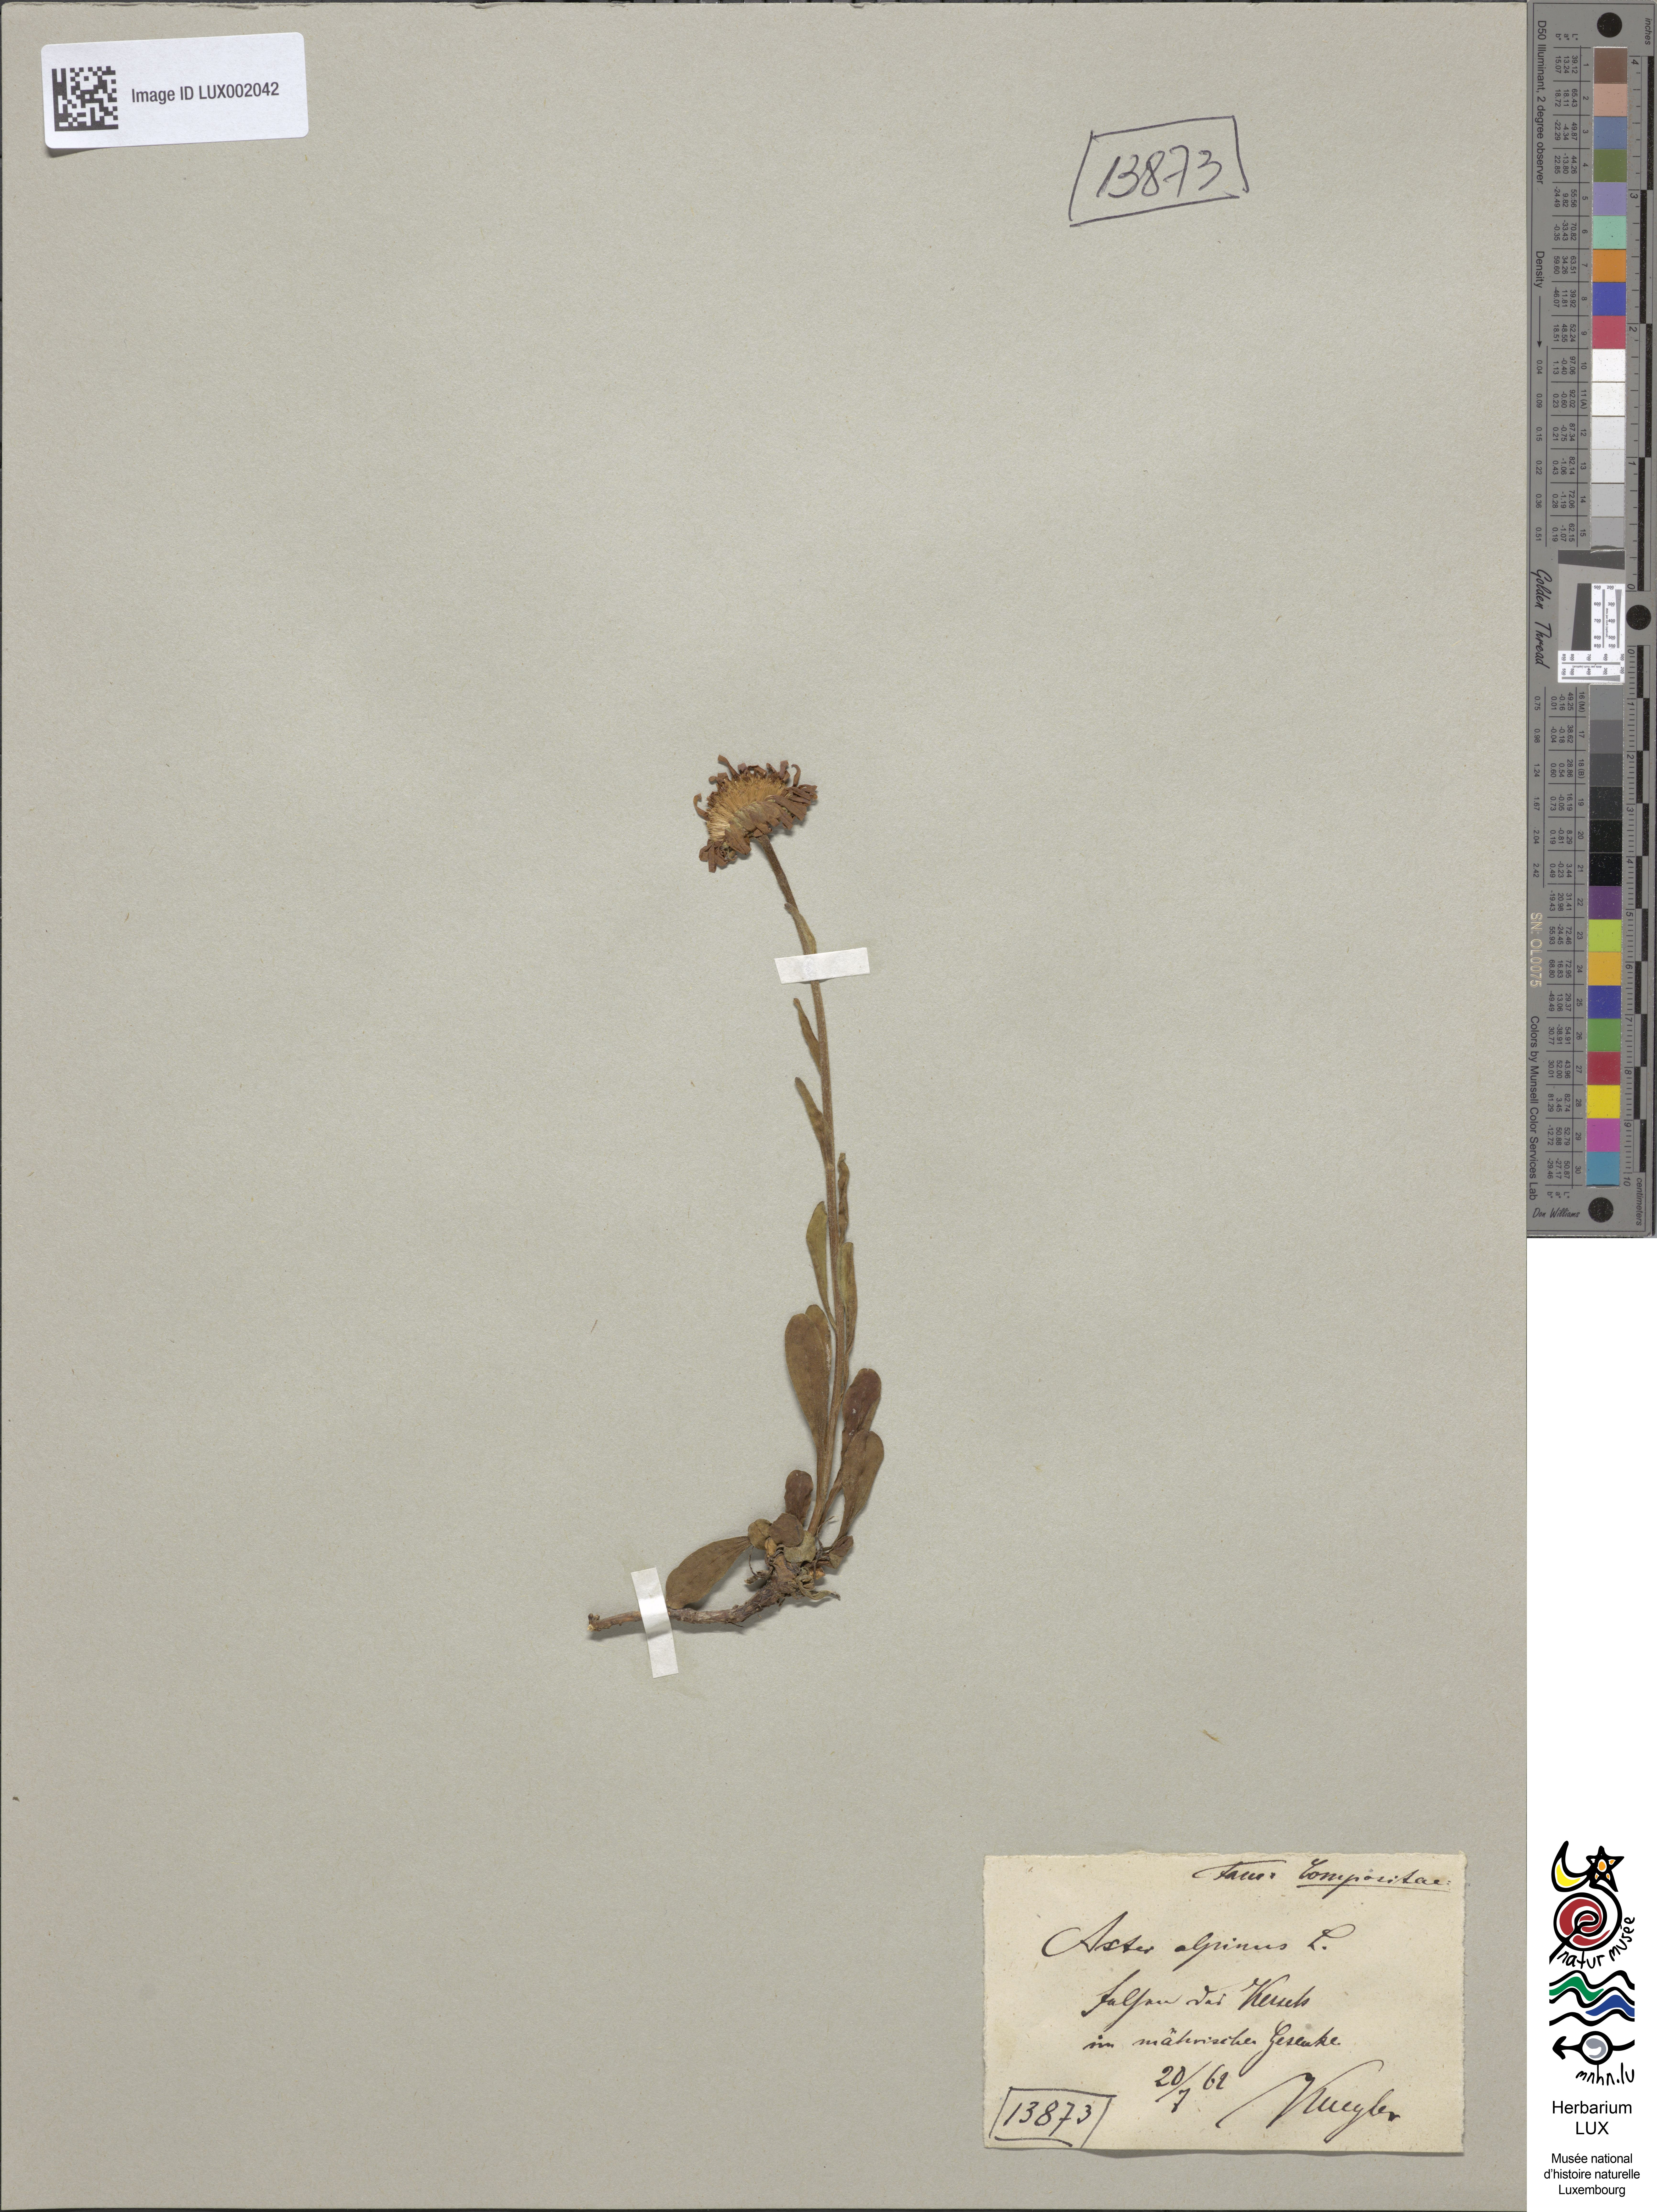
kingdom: Plantae
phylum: Tracheophyta
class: Magnoliopsida
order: Asterales
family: Asteraceae
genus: Aster
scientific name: Aster alpinus
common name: Alpine aster
